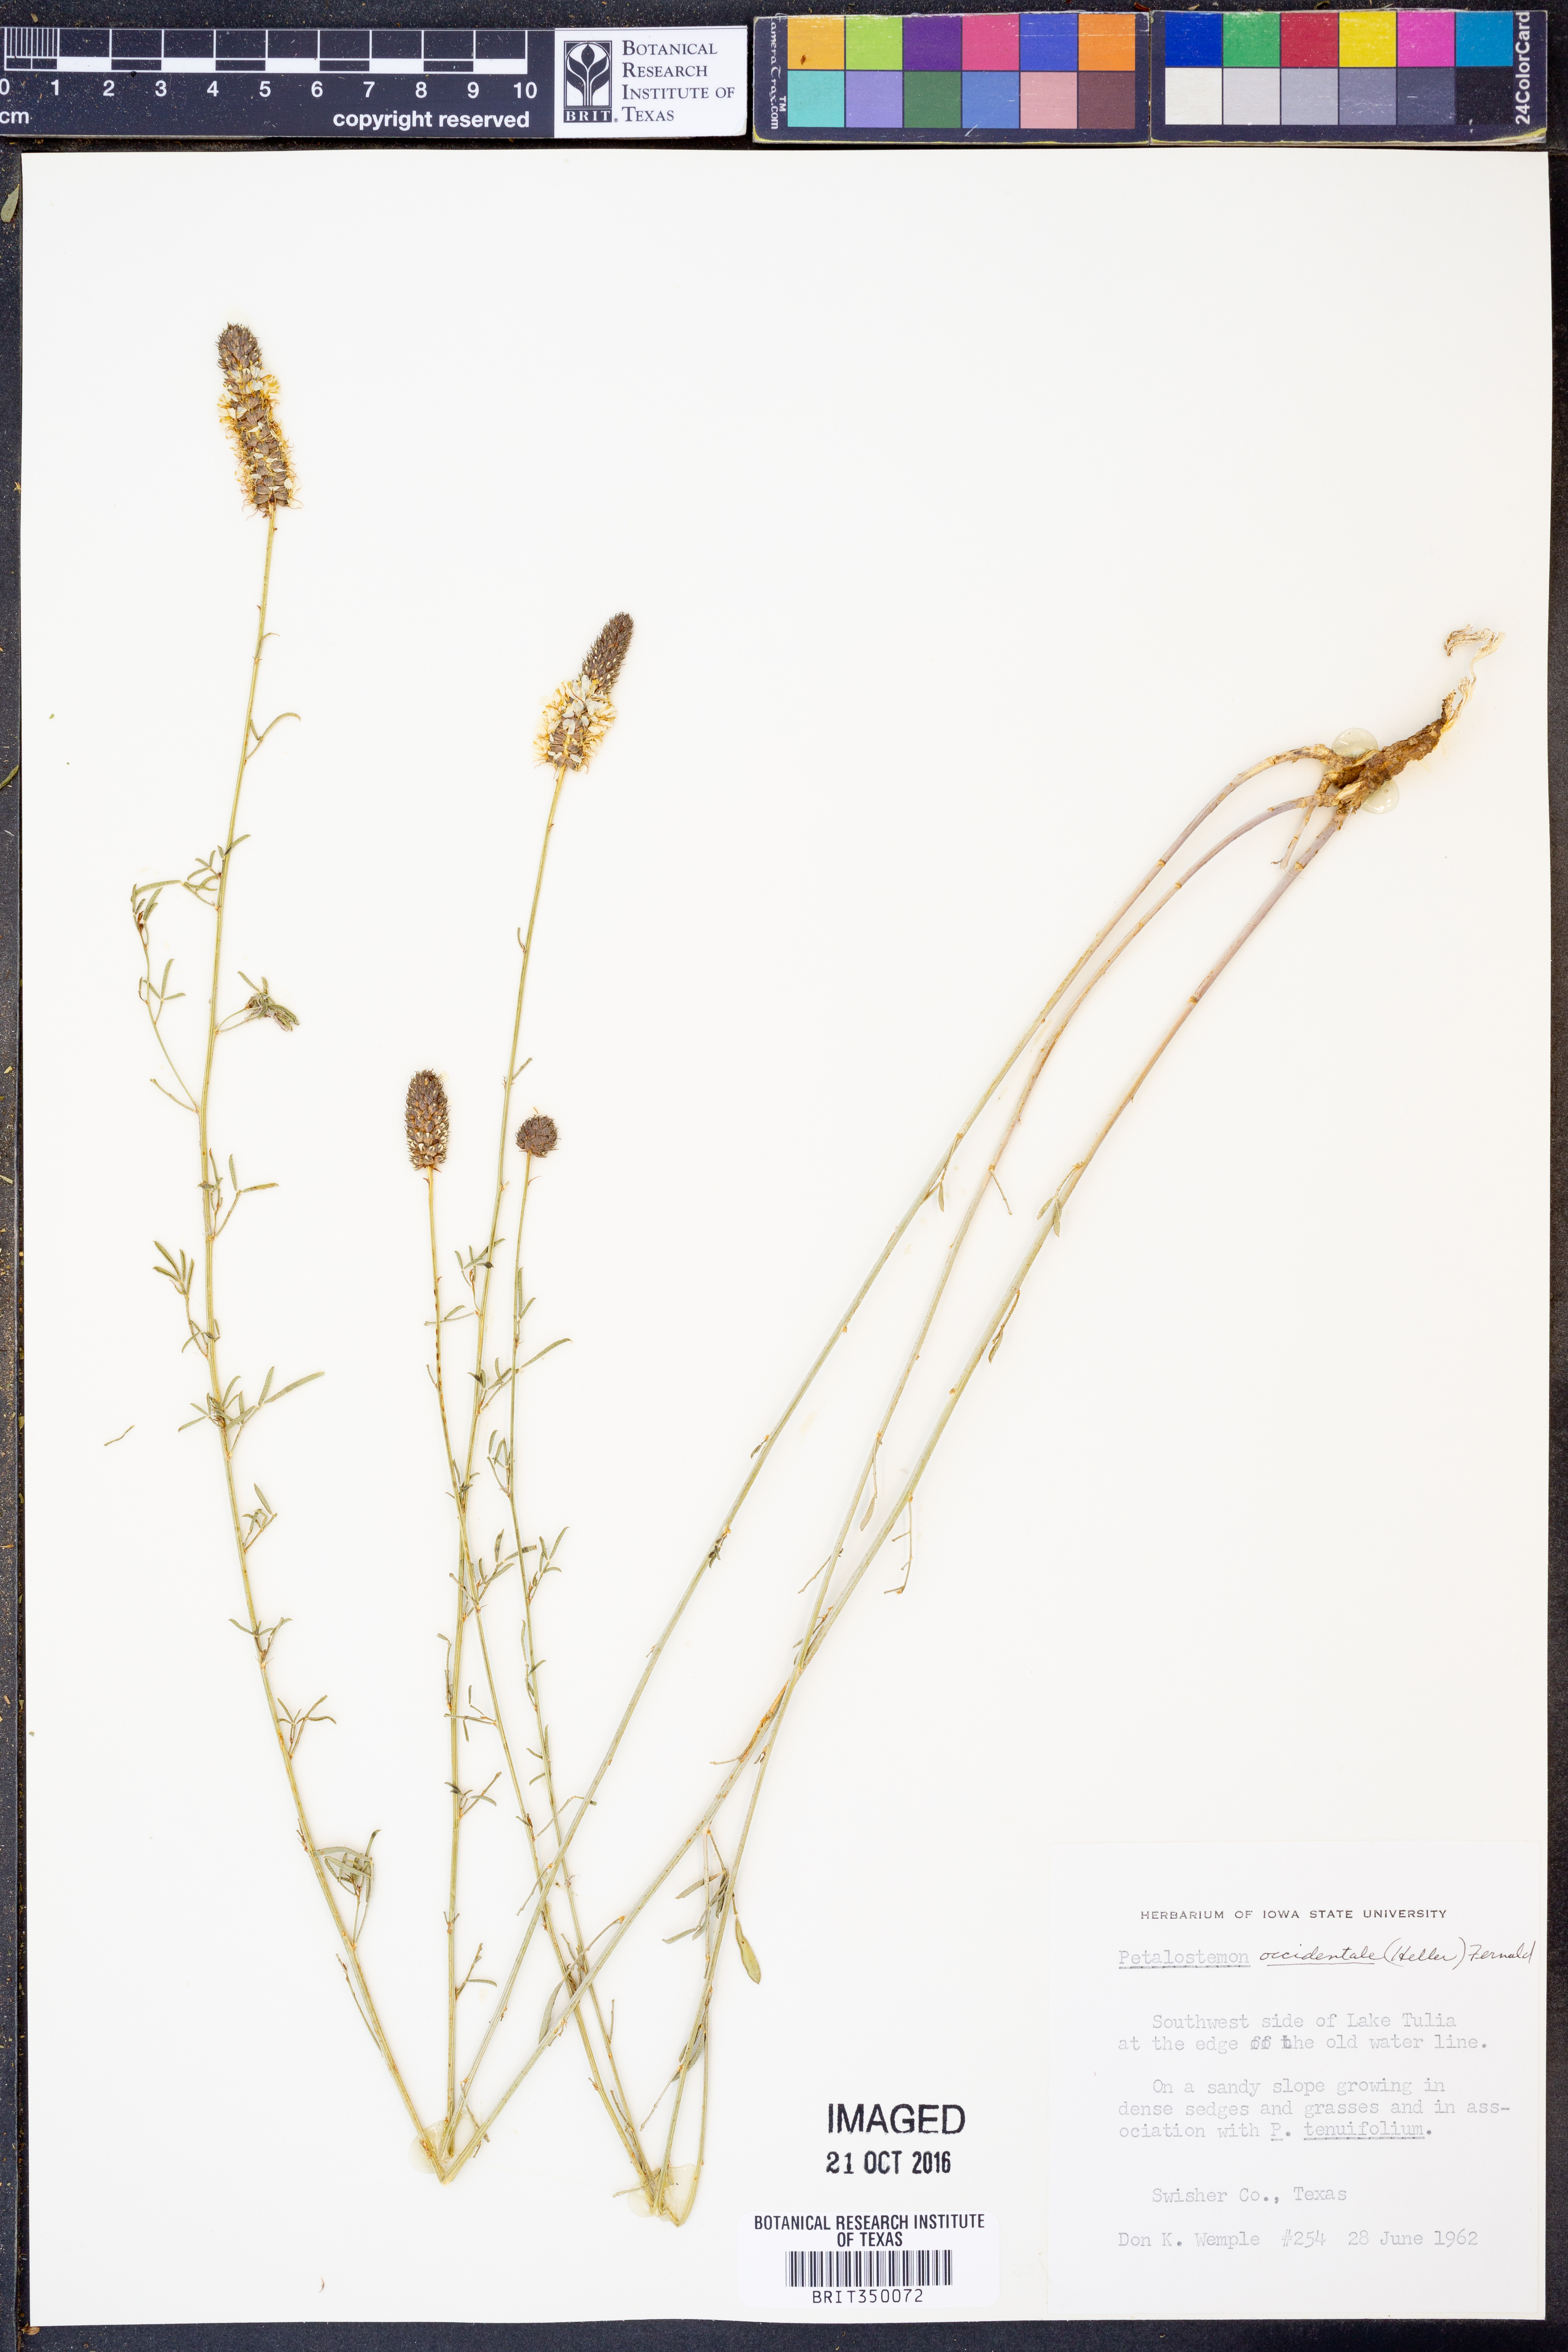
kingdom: Plantae
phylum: Tracheophyta
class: Magnoliopsida
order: Fabales
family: Fabaceae
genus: Dalea
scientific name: Dalea candida
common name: White prairie-clover
